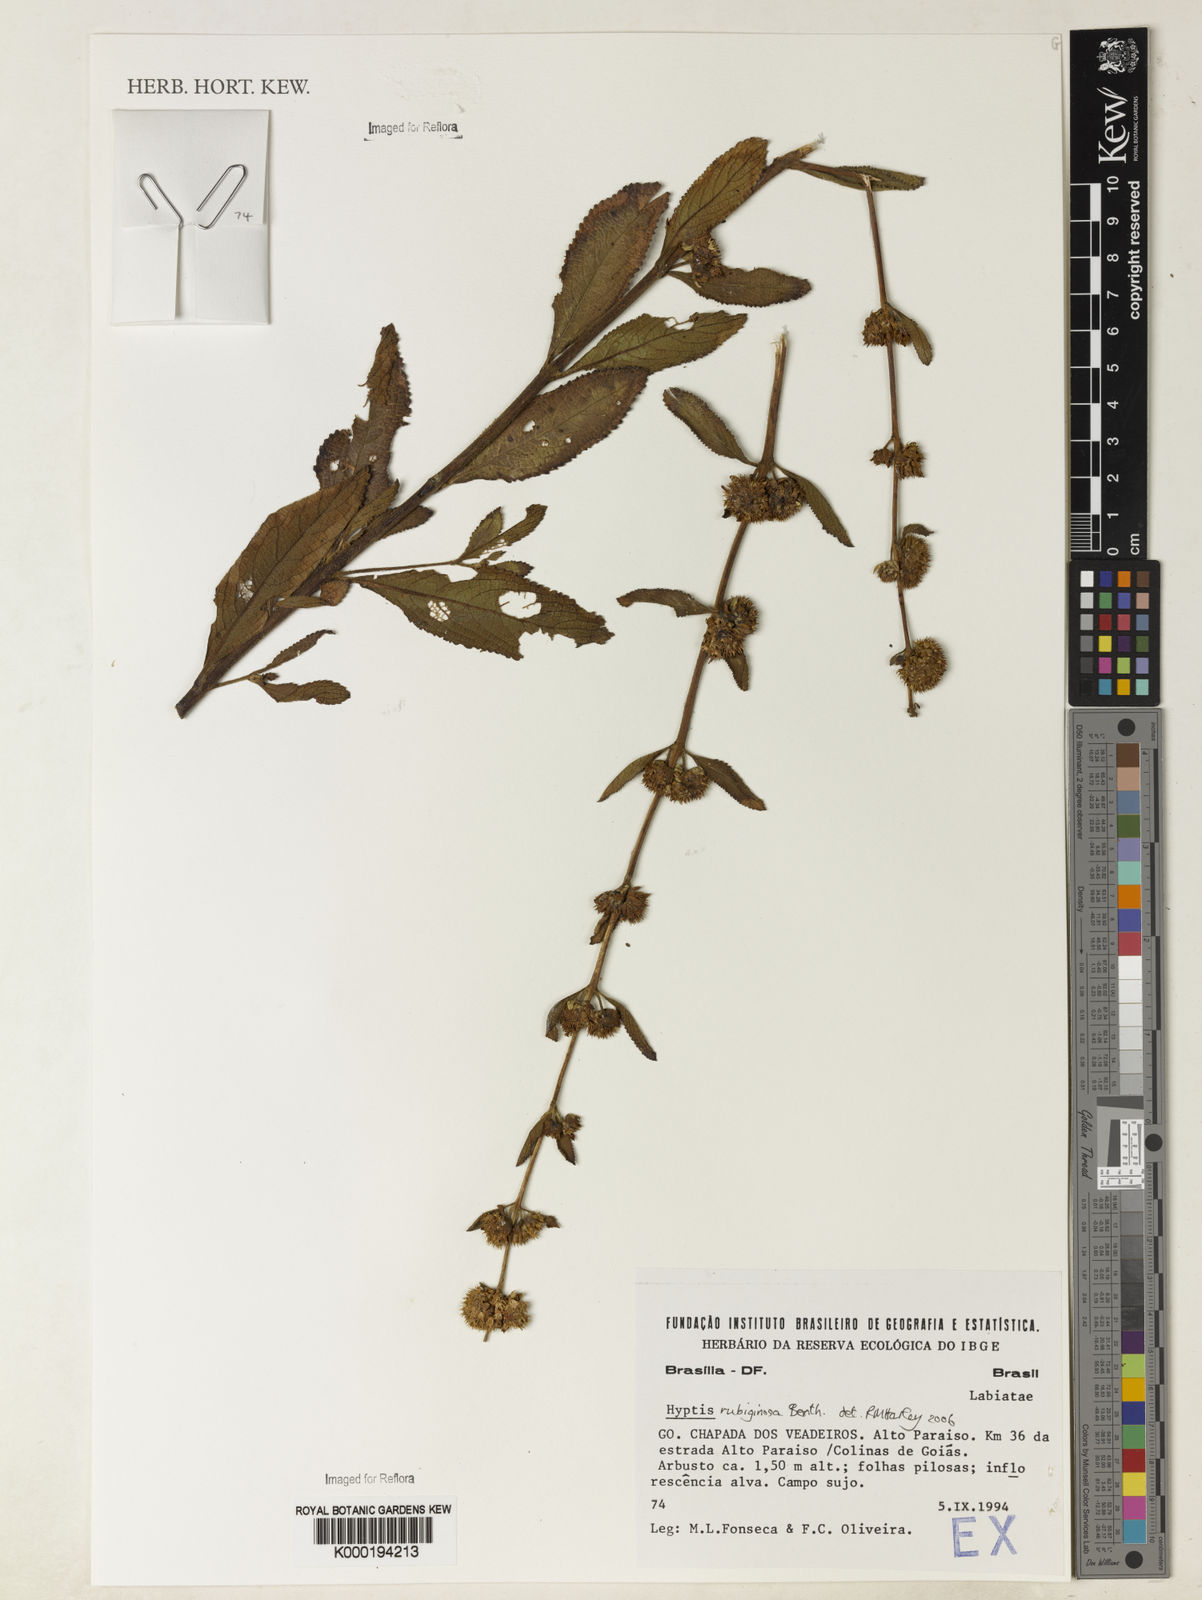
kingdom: Plantae
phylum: Tracheophyta
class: Magnoliopsida
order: Lamiales
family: Lamiaceae
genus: Salvia
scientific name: Salvia tomentella
